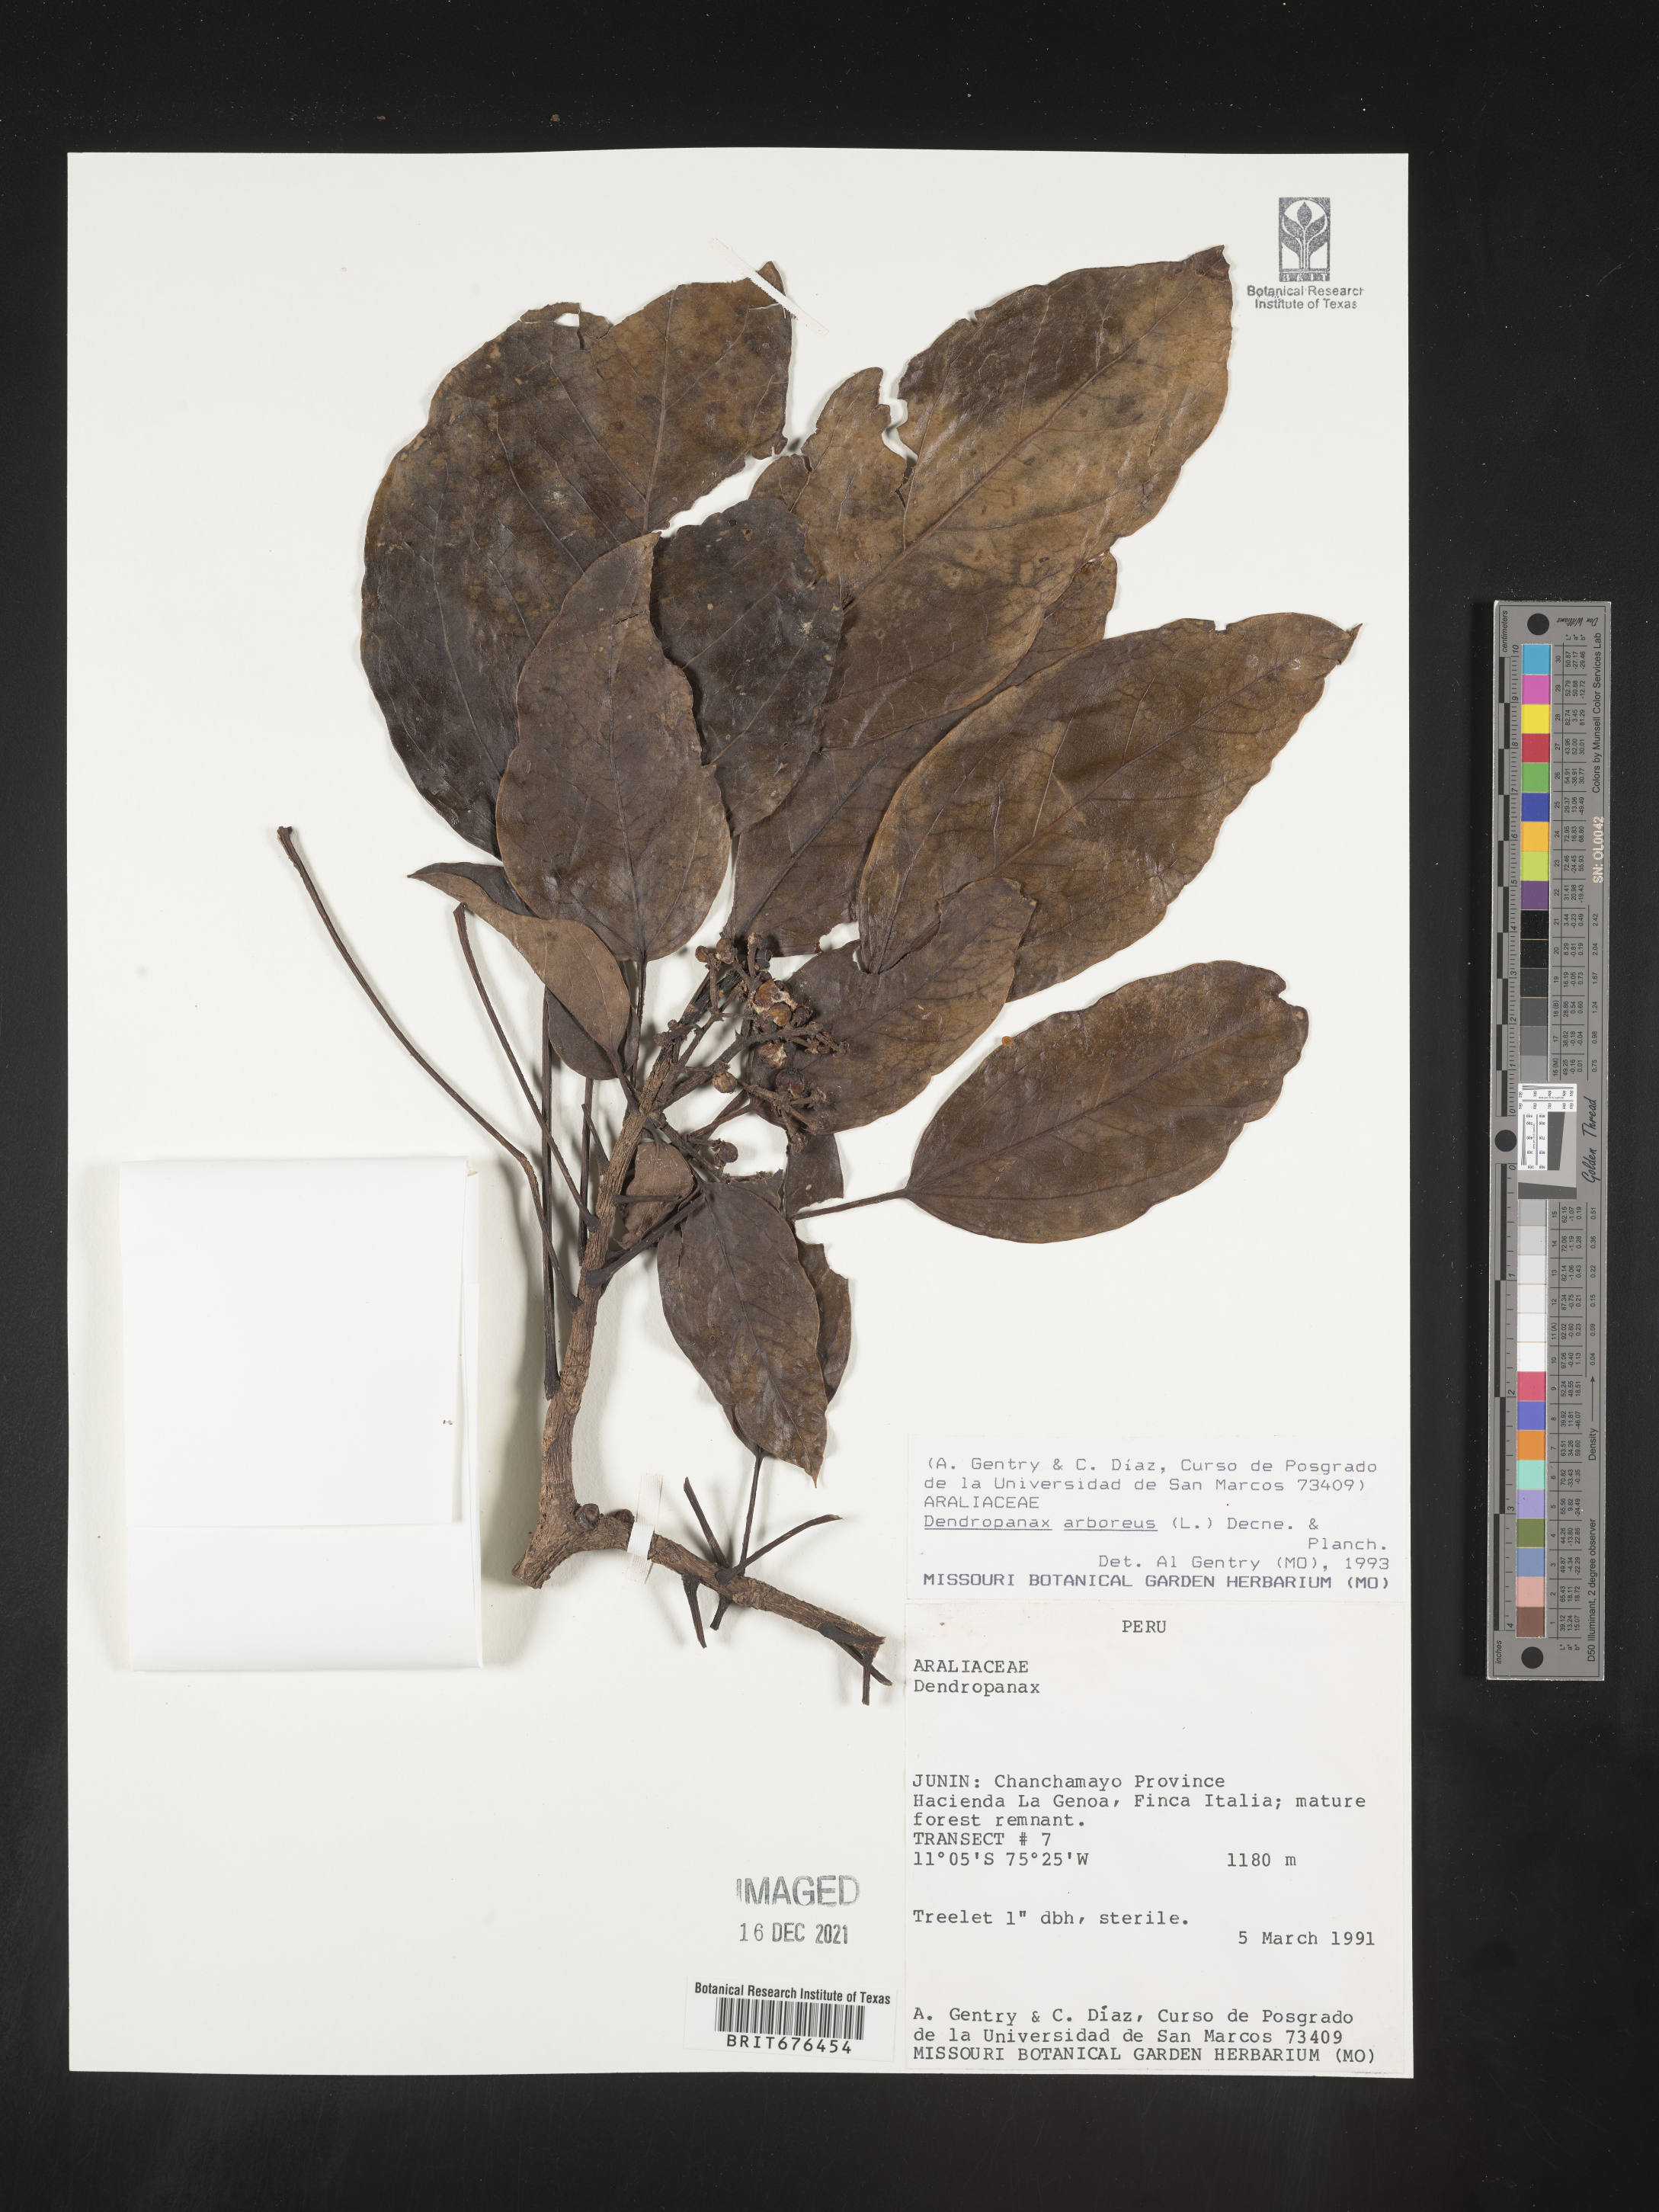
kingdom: Plantae
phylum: Tracheophyta
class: Magnoliopsida
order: Apiales
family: Araliaceae
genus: Dendropanax
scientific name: Dendropanax
